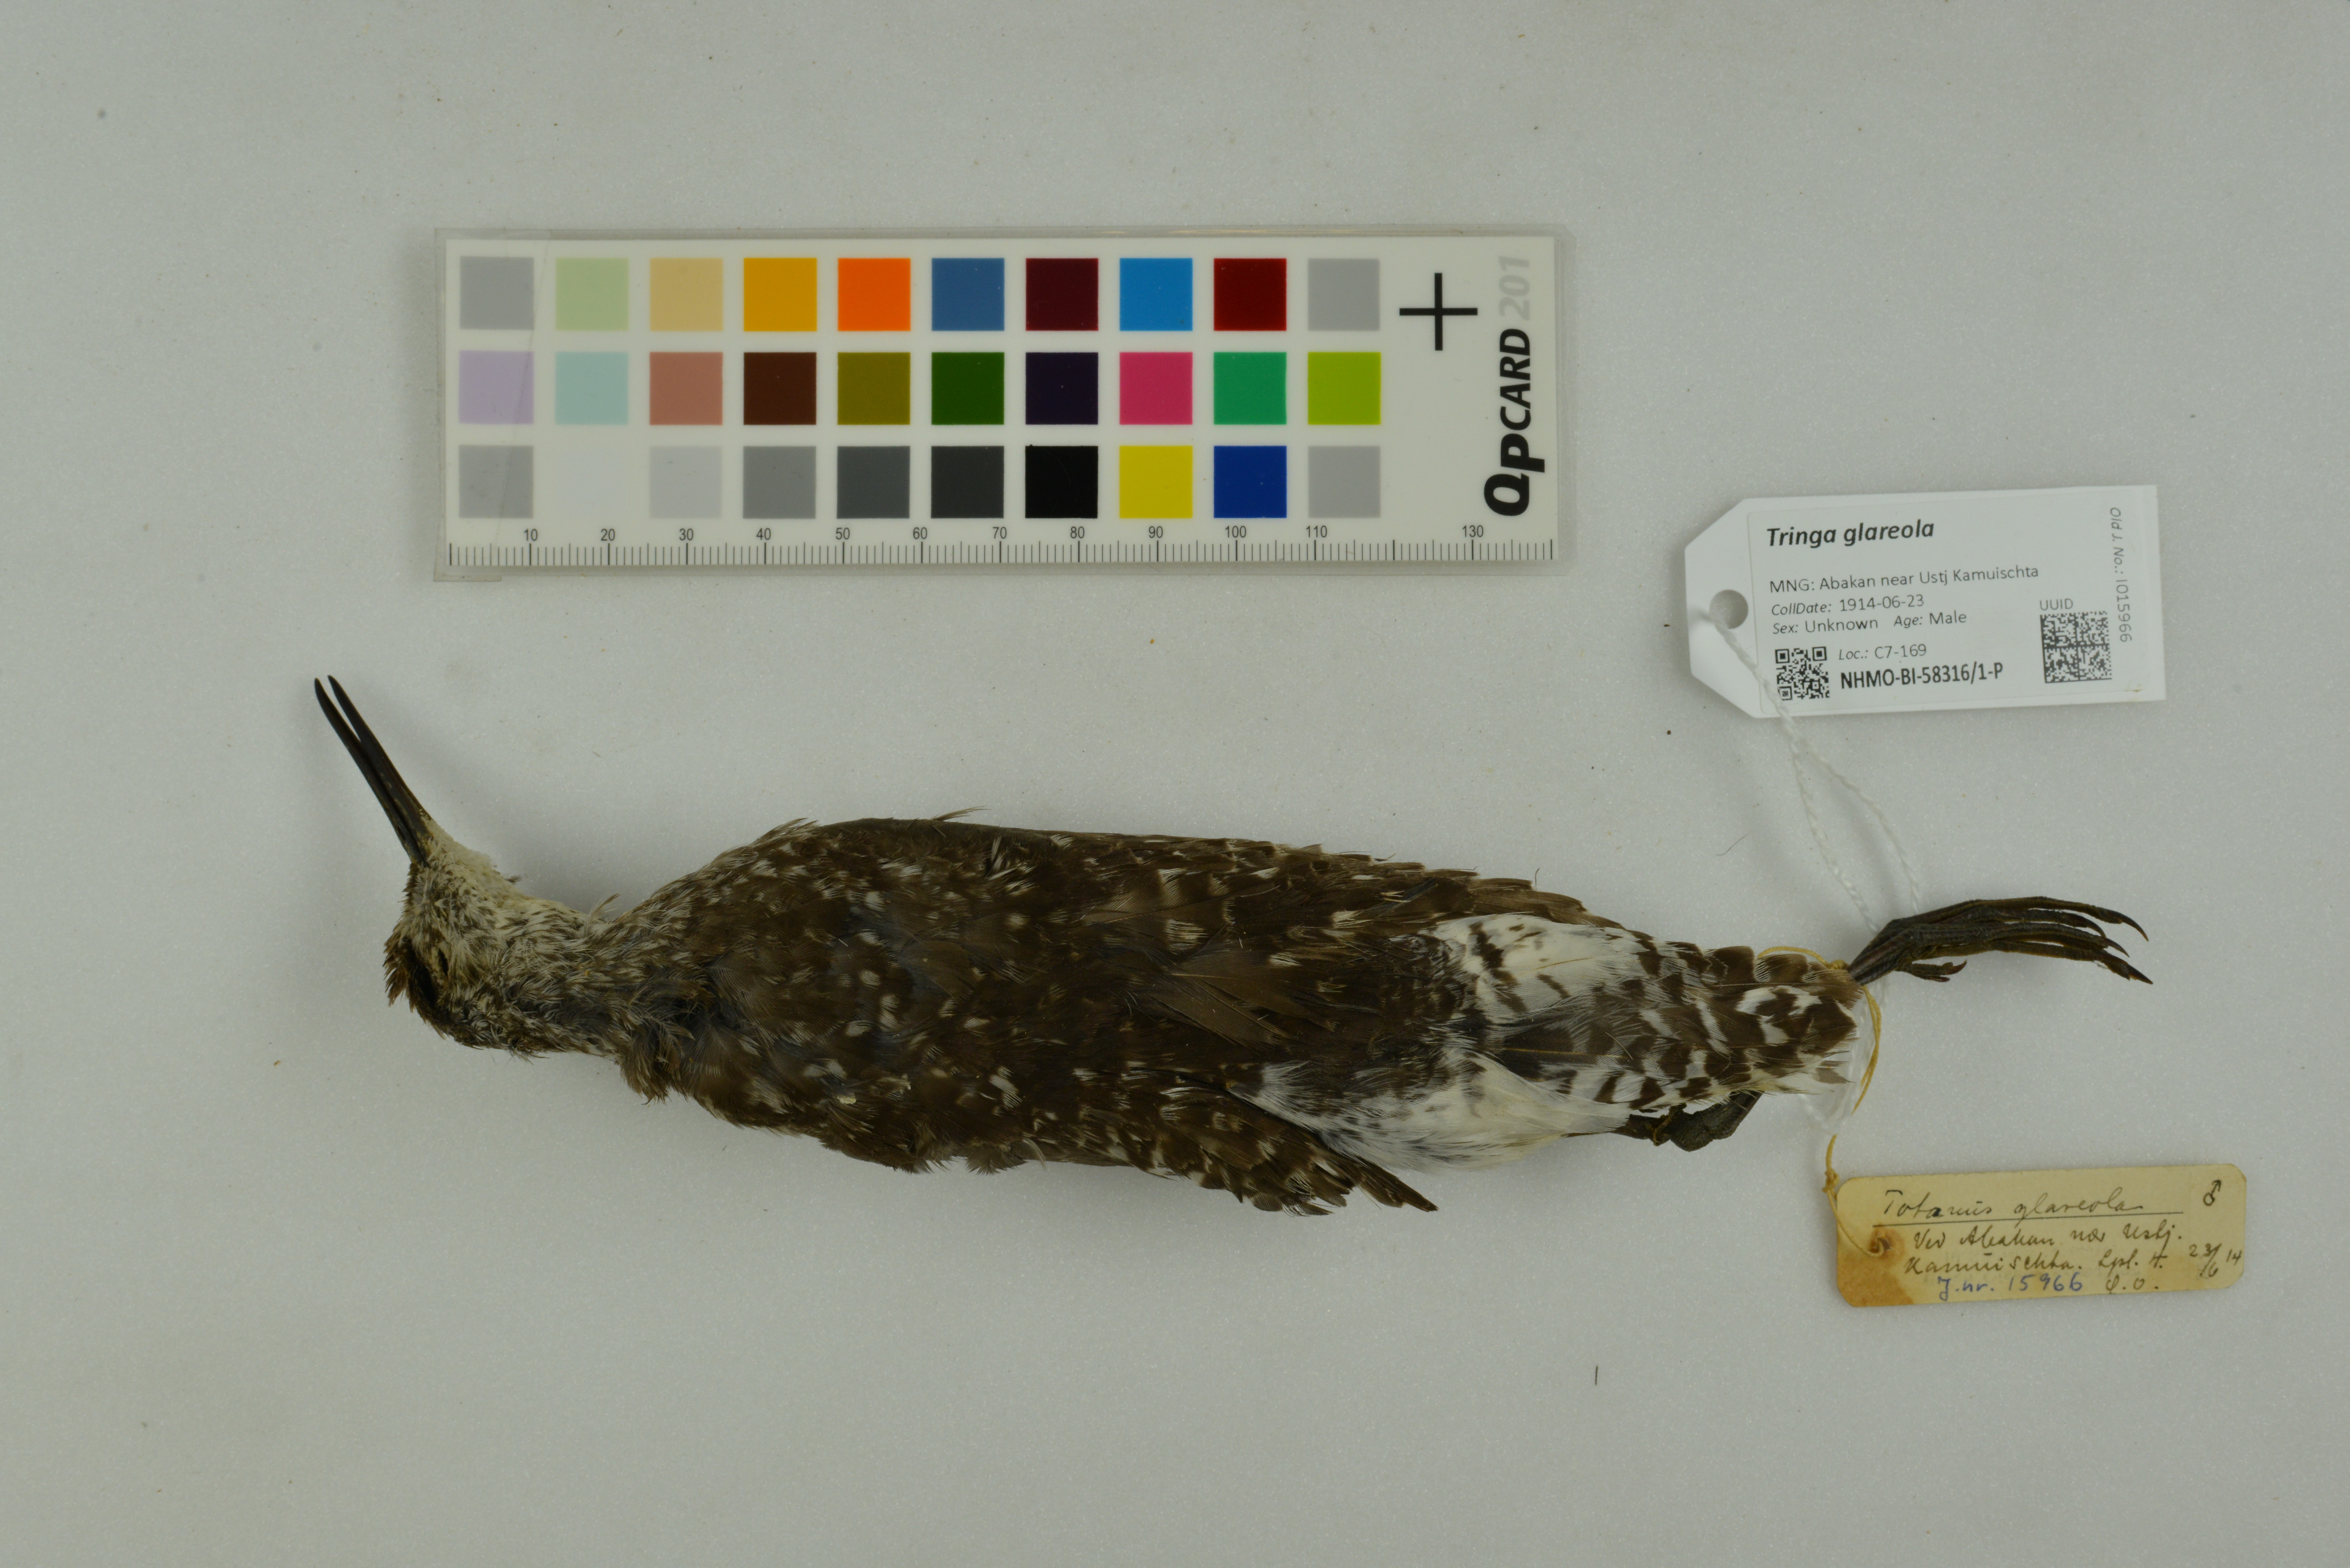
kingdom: Animalia
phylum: Chordata
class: Aves
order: Charadriiformes
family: Scolopacidae
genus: Tringa
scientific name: Tringa glareola
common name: Wood sandpiper
